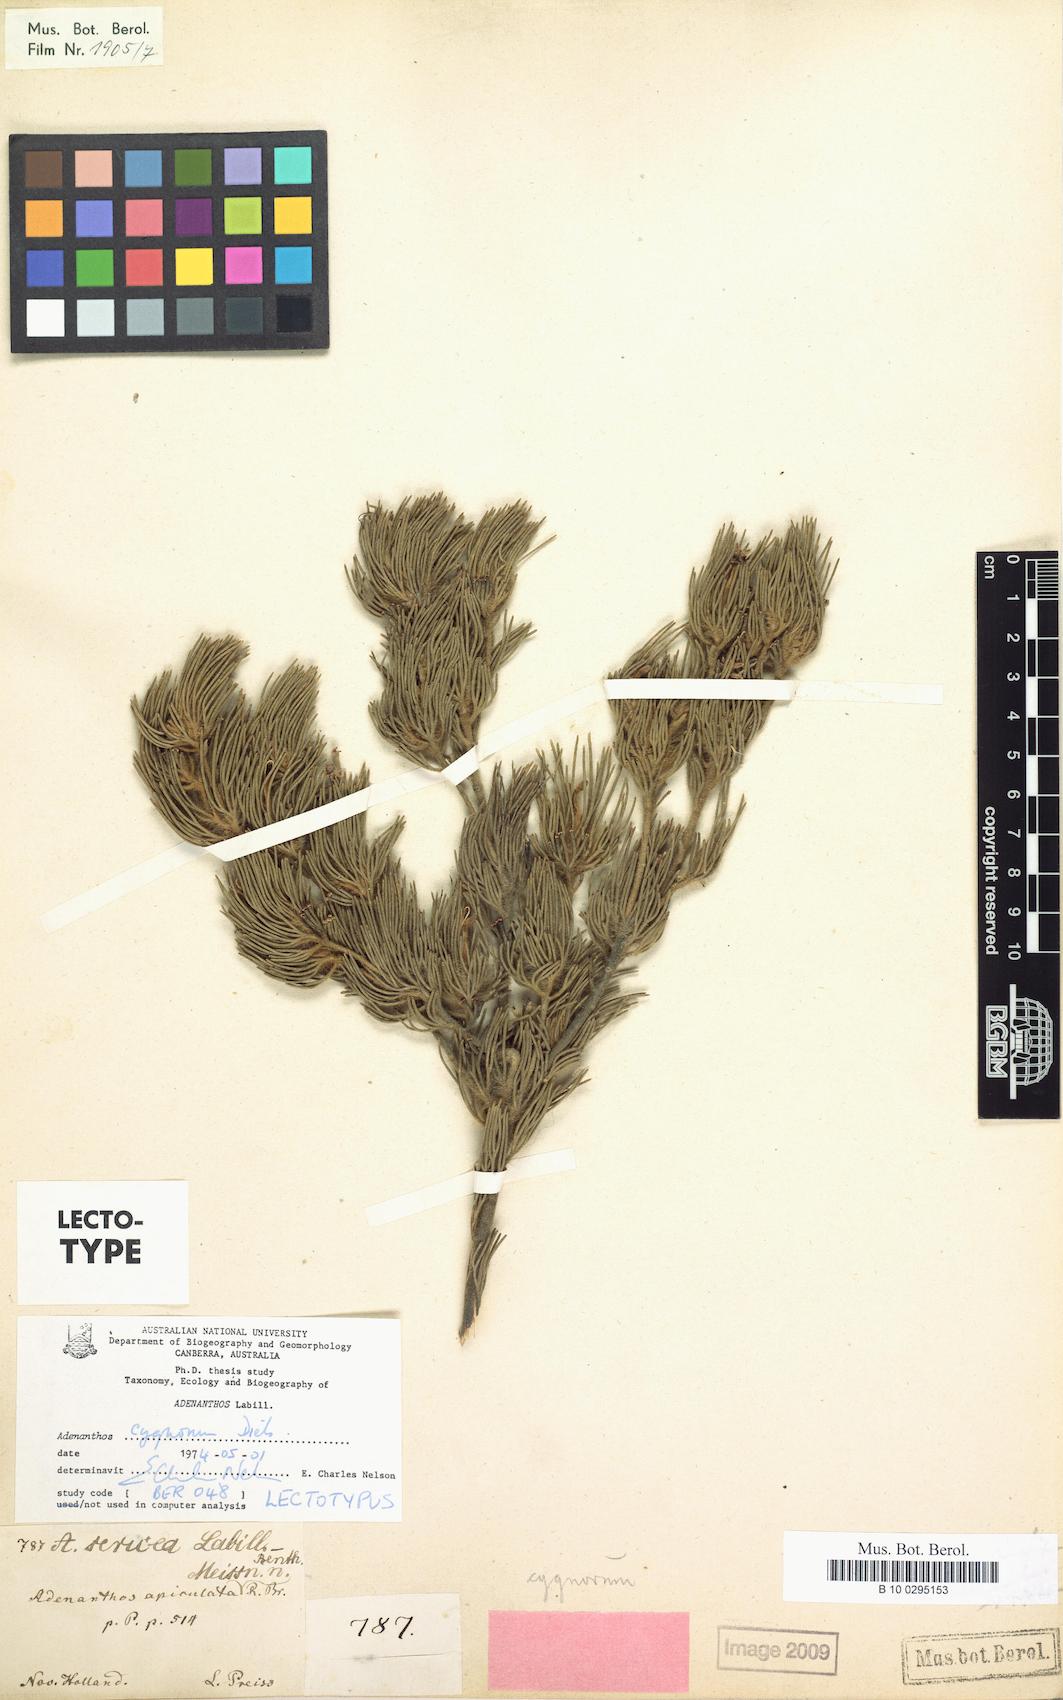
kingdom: Plantae
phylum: Tracheophyta
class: Magnoliopsida
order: Proteales
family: Proteaceae
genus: Adenanthos
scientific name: Adenanthos cygnorum
